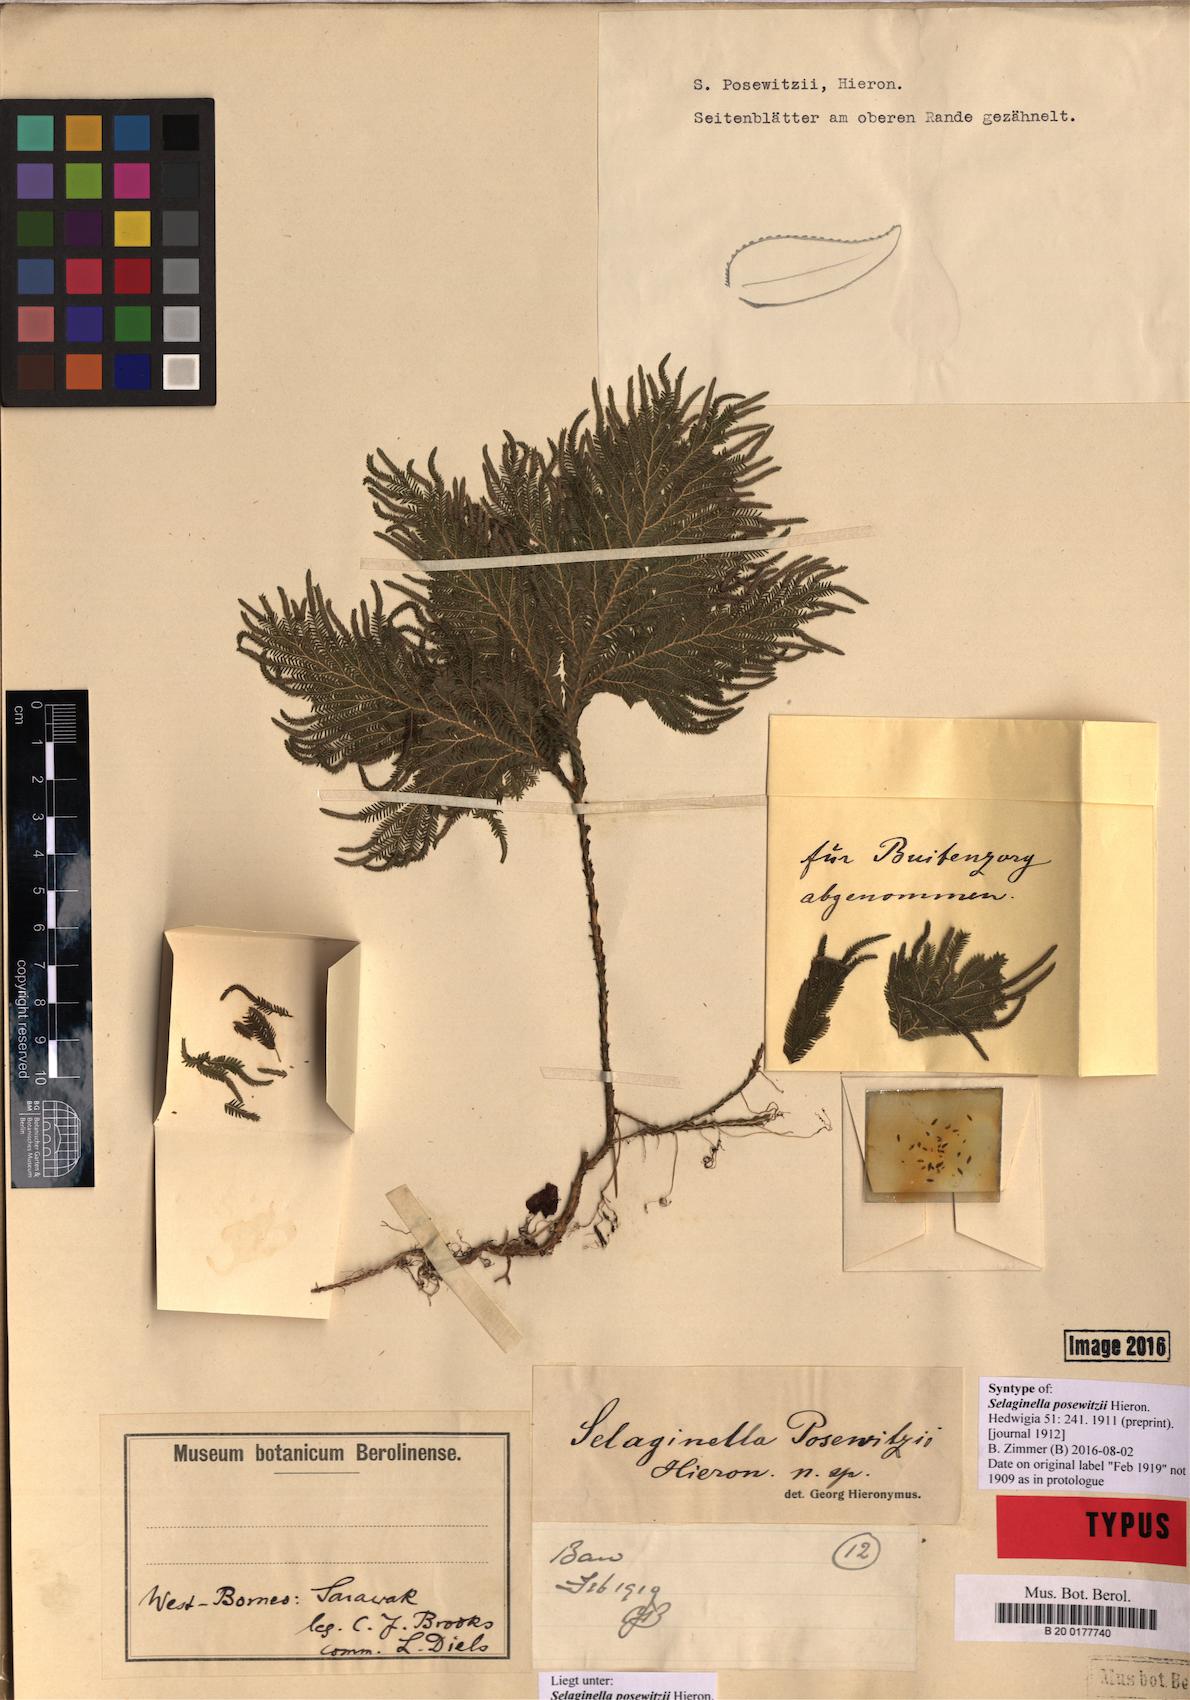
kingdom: Plantae
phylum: Tracheophyta
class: Lycopodiopsida
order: Selaginellales
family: Selaginellaceae
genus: Selaginella
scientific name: Selaginella posewitzii
